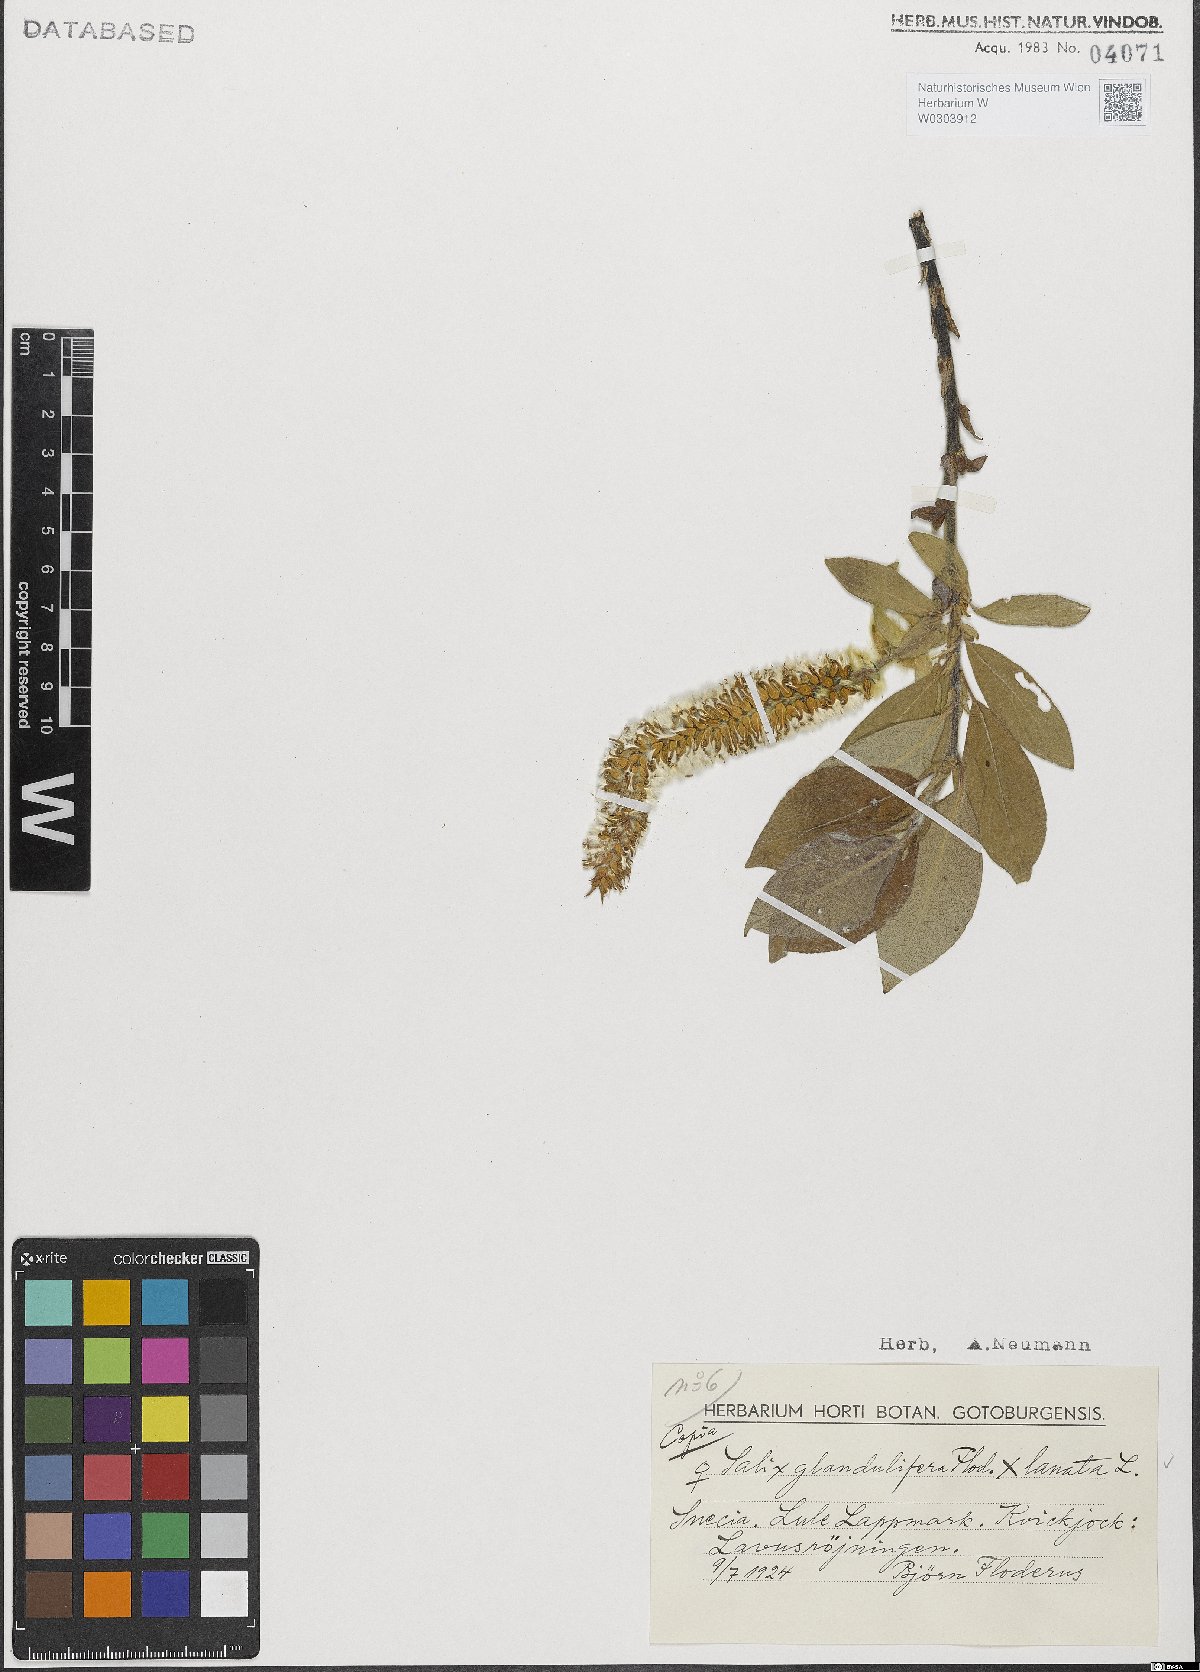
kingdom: Plantae
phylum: Tracheophyta
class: Magnoliopsida
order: Malpighiales
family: Salicaceae
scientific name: Salicaceae
